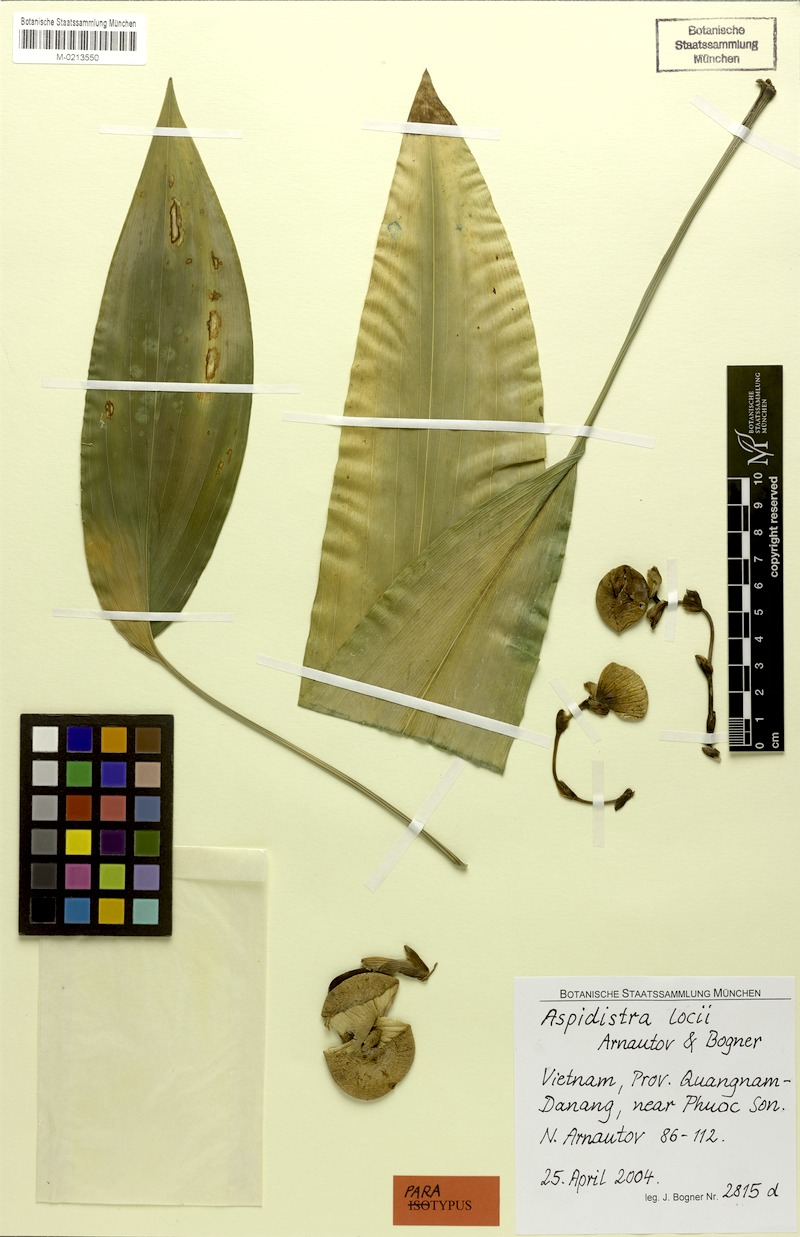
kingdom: Plantae
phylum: Tracheophyta
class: Liliopsida
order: Asparagales
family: Asparagaceae
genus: Aspidistra
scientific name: Aspidistra locii
